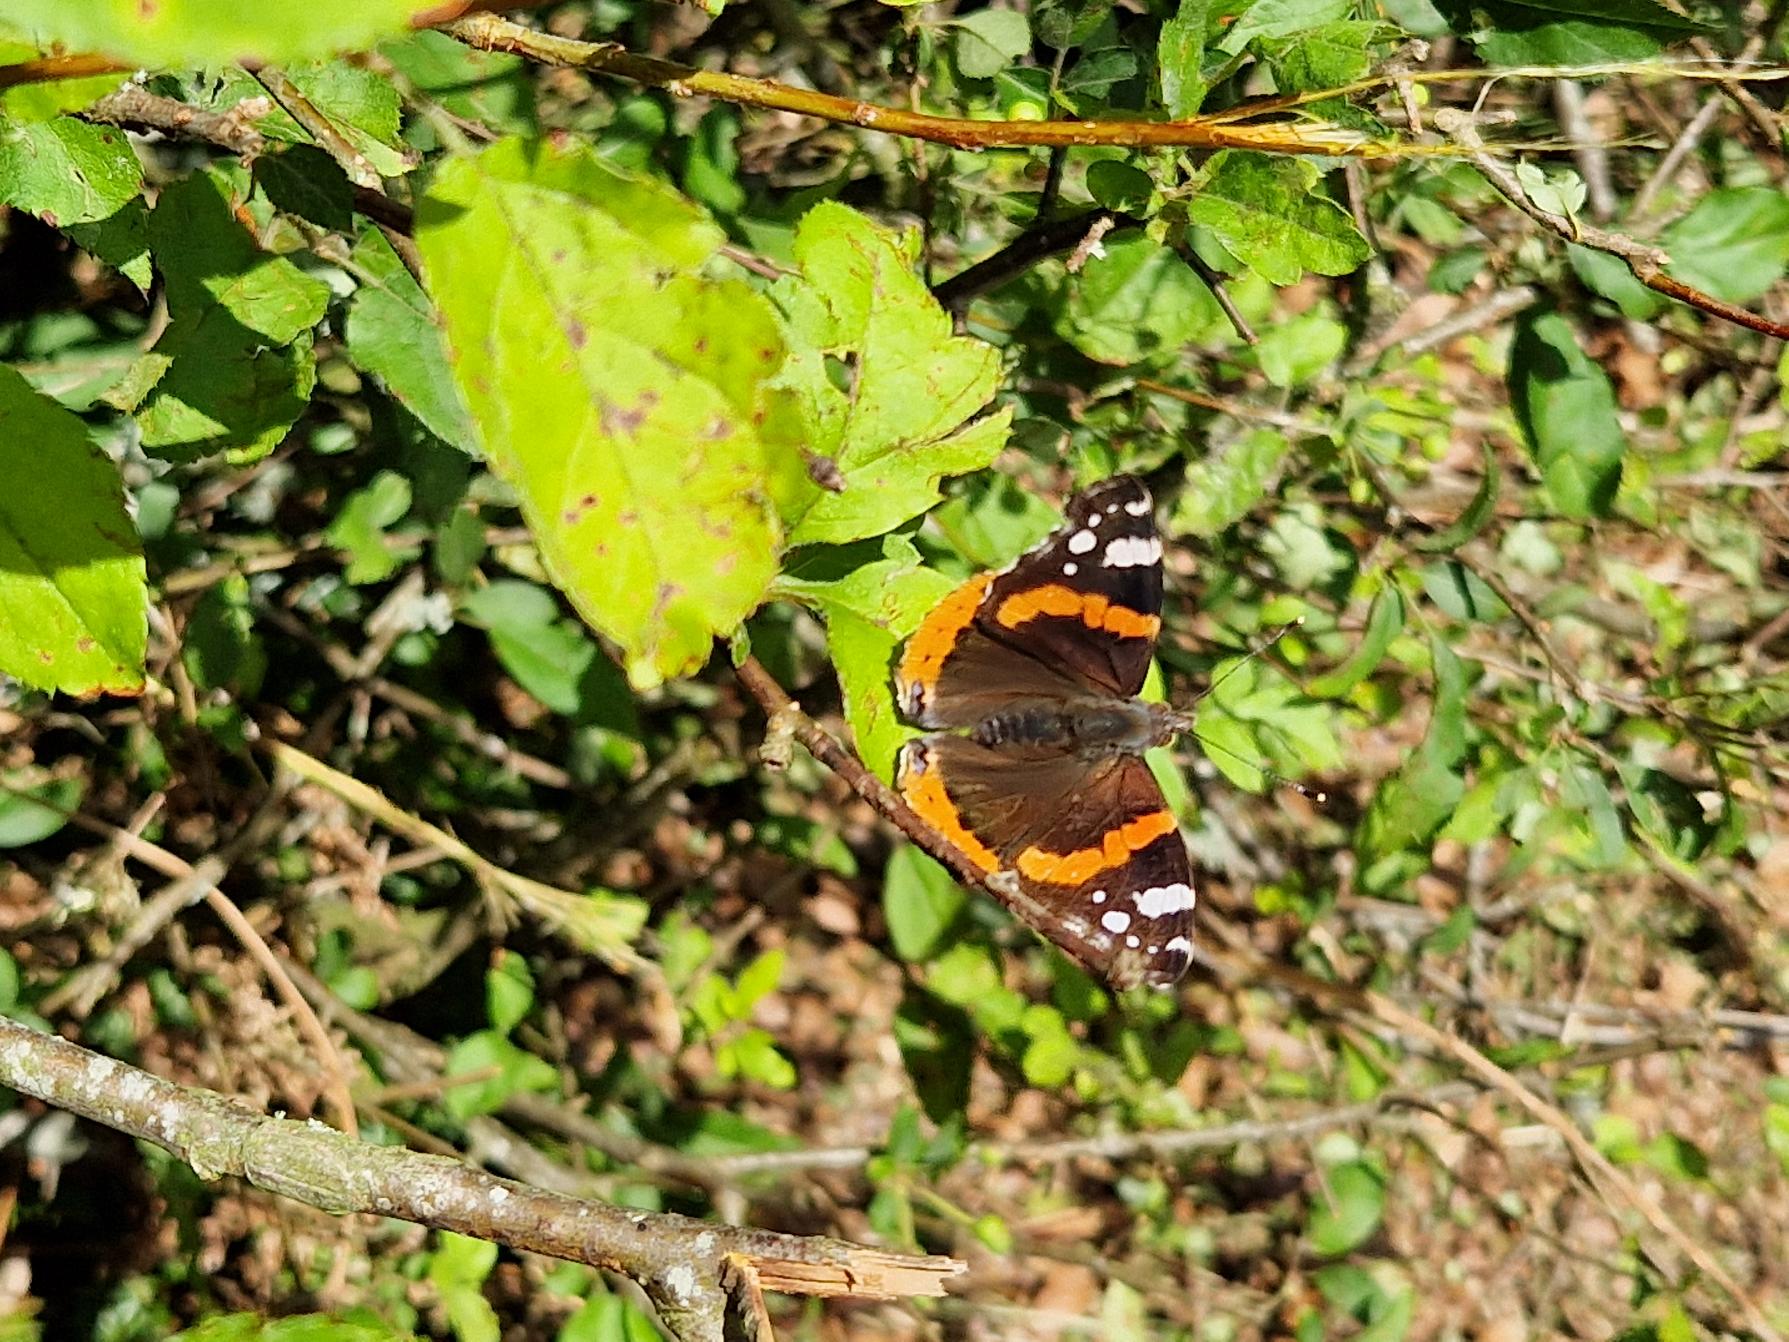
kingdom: Animalia
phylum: Arthropoda
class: Insecta
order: Lepidoptera
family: Nymphalidae
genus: Vanessa
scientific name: Vanessa atalanta
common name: Admiral
